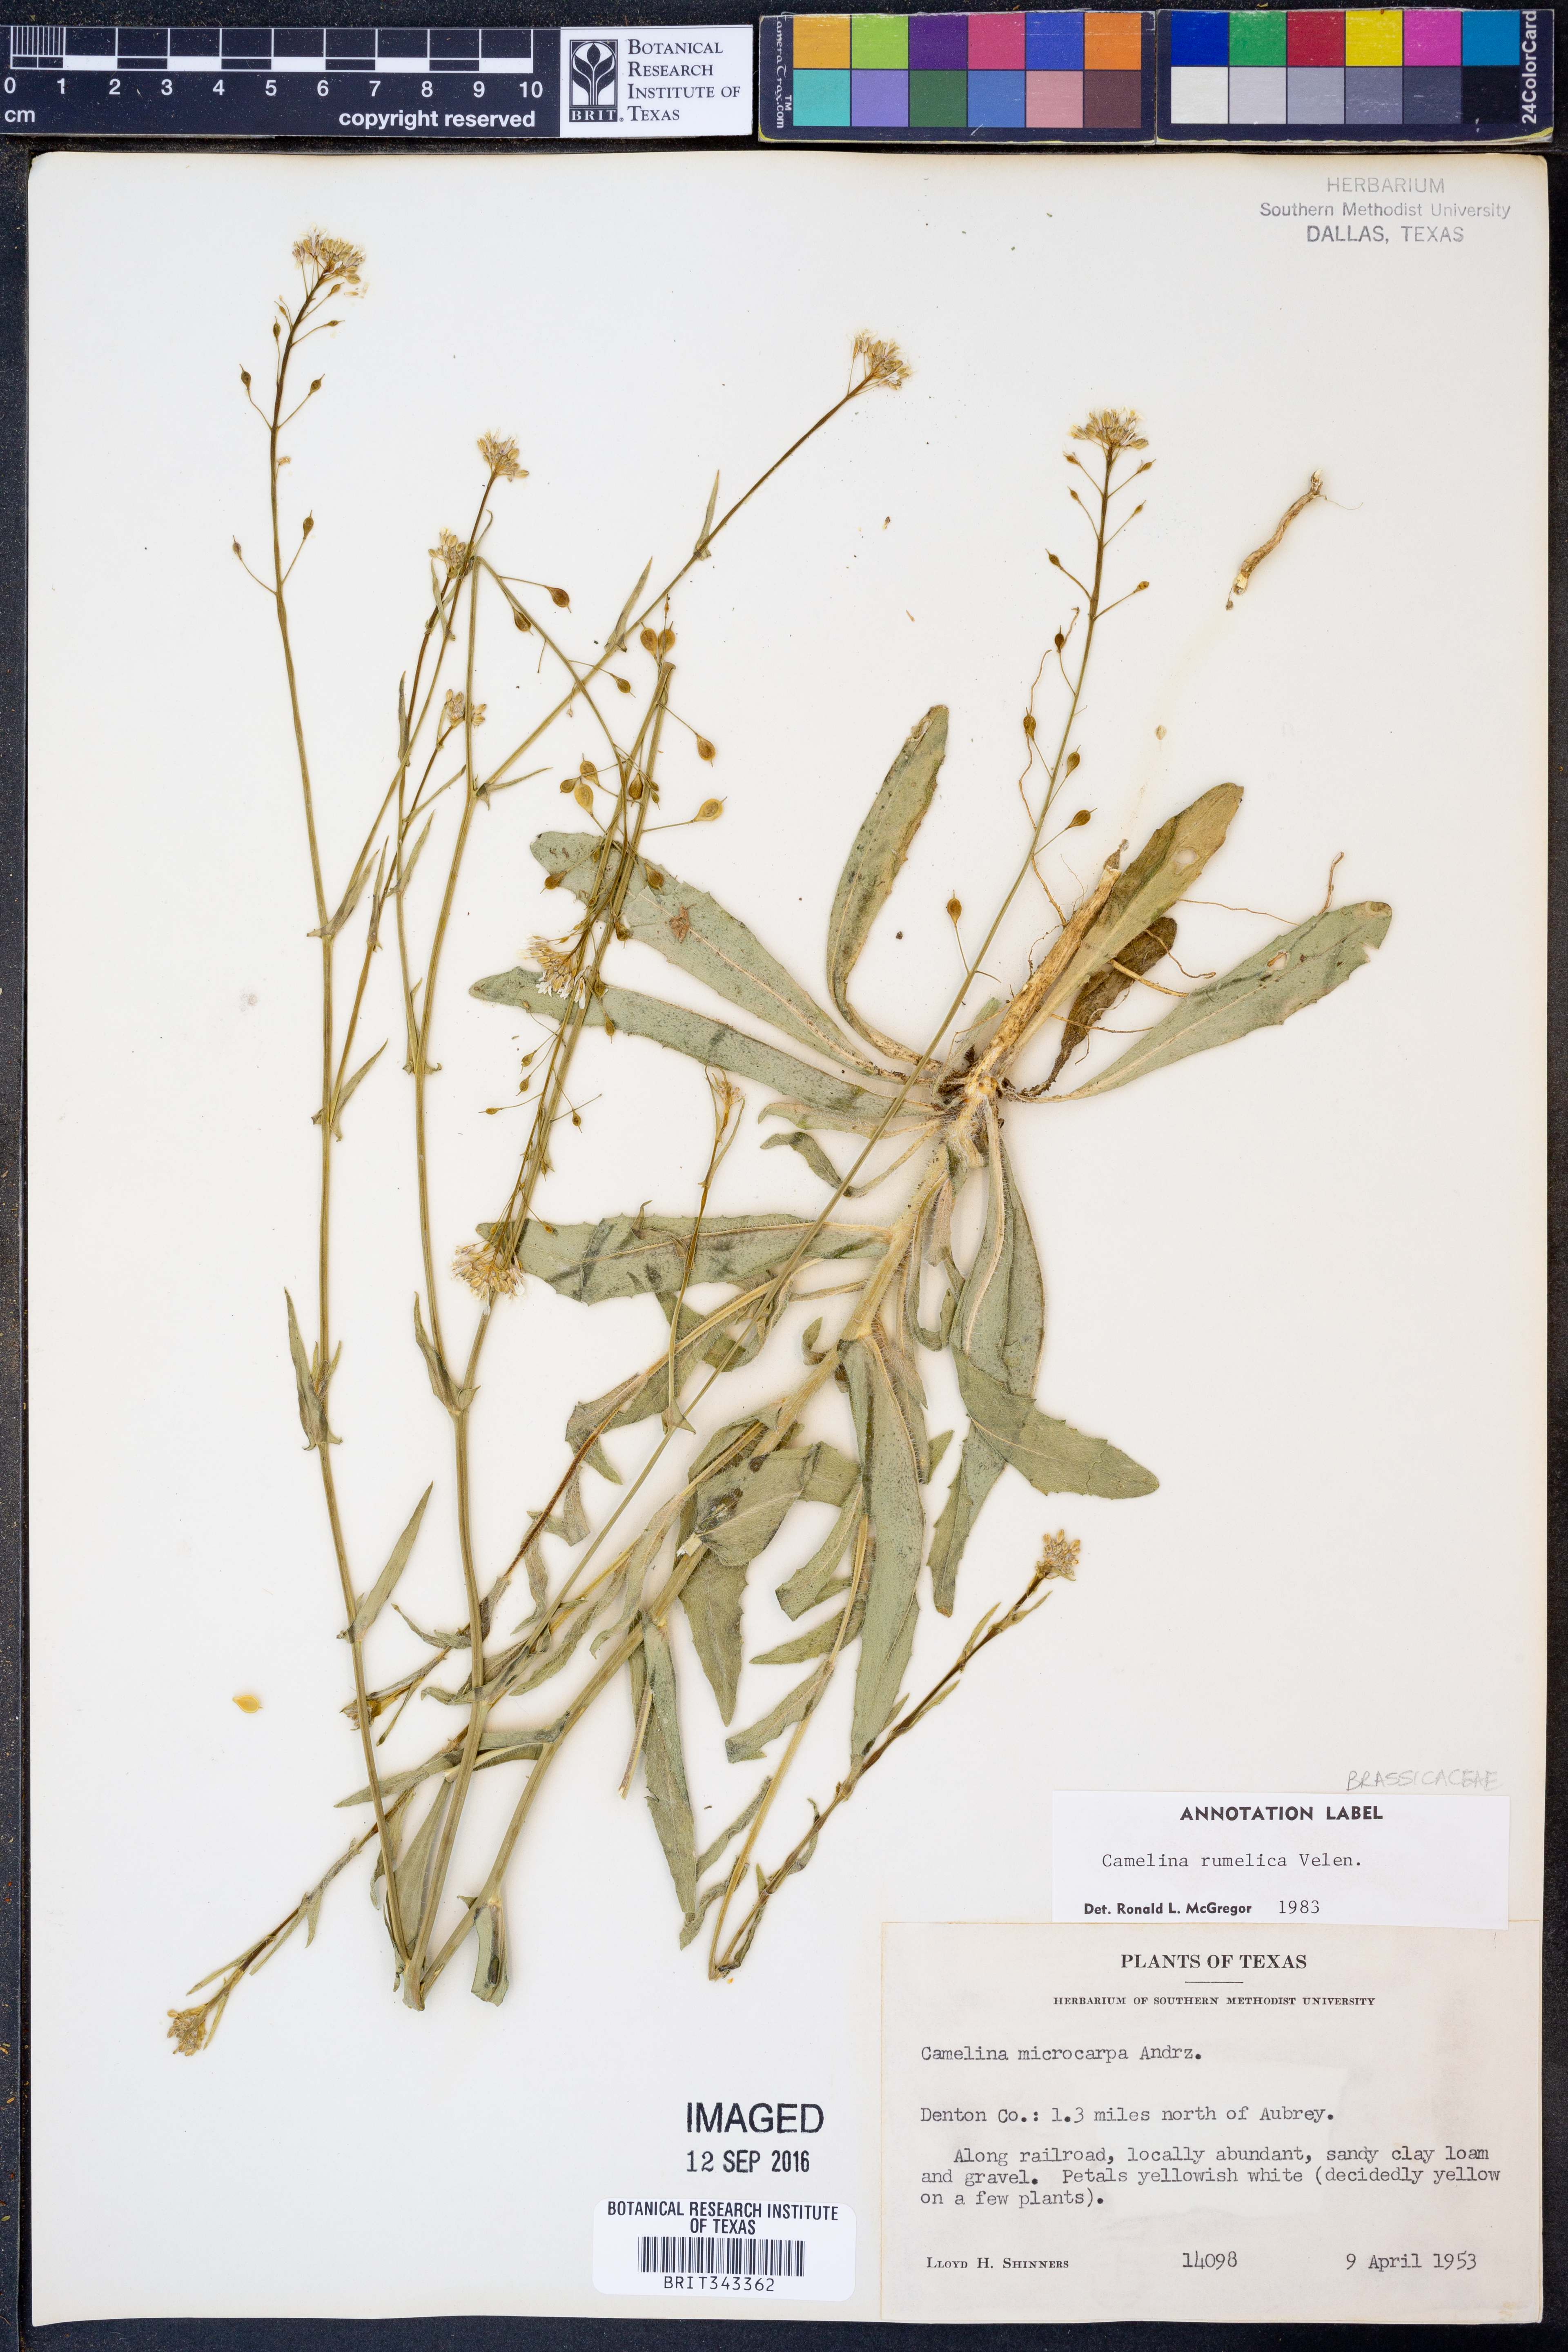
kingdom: Plantae
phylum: Tracheophyta
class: Magnoliopsida
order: Brassicales
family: Brassicaceae
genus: Camelina
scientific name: Camelina rumelica
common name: Graceful false flax
